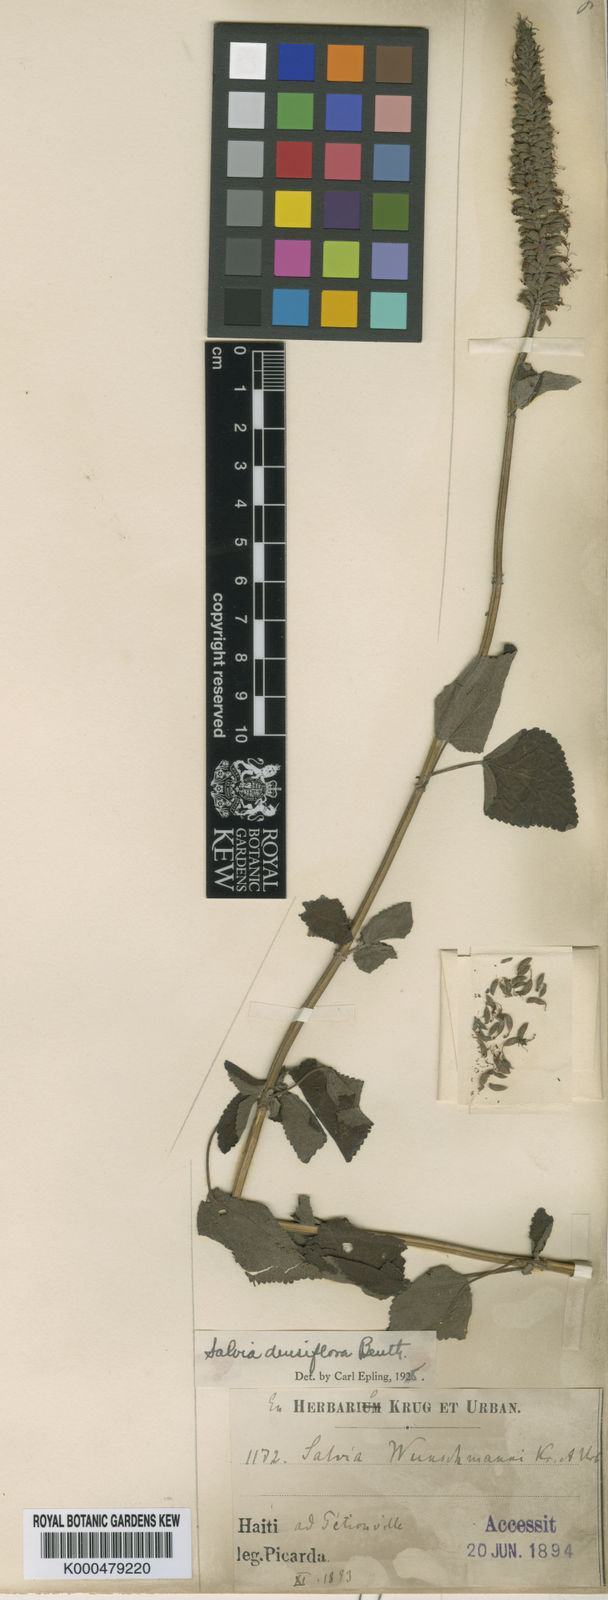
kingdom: Plantae
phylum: Tracheophyta
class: Magnoliopsida
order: Lamiales
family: Lamiaceae
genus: Salvia
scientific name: Salvia densiflora
